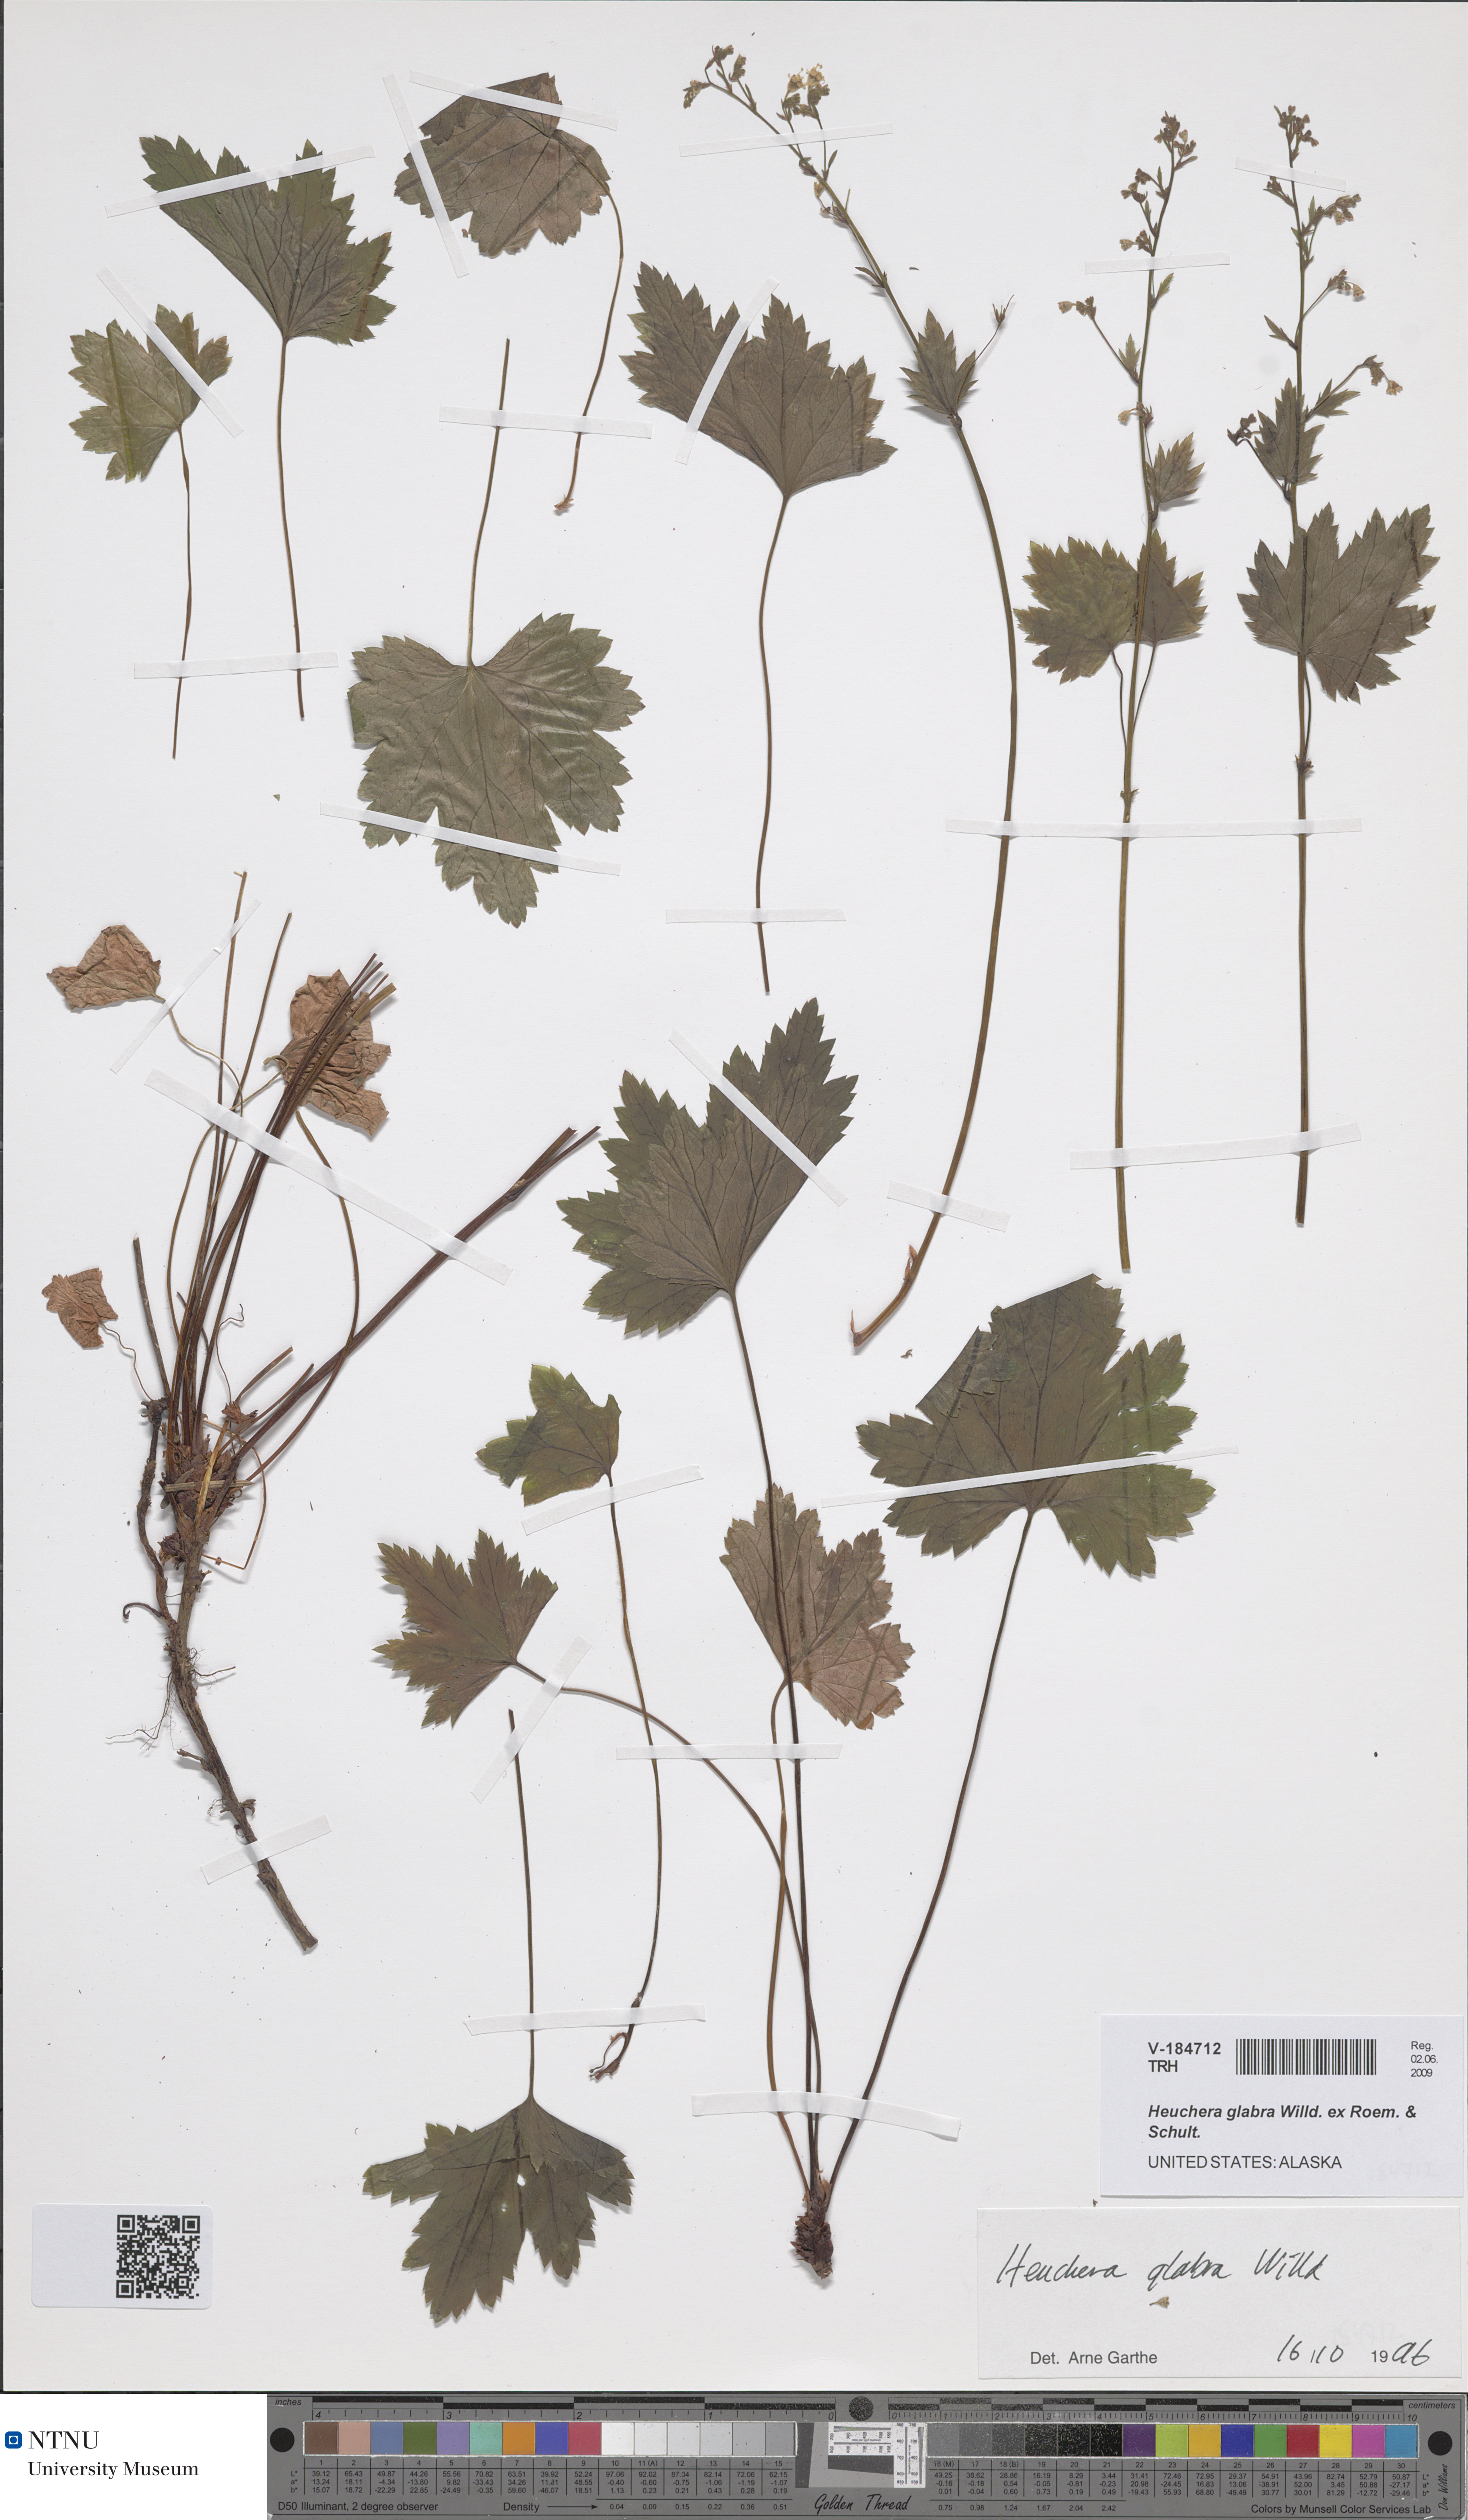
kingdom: Plantae
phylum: Tracheophyta
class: Magnoliopsida
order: Saxifragales
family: Saxifragaceae
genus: Heuchera
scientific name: Heuchera glabra
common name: Alpine alumroot
